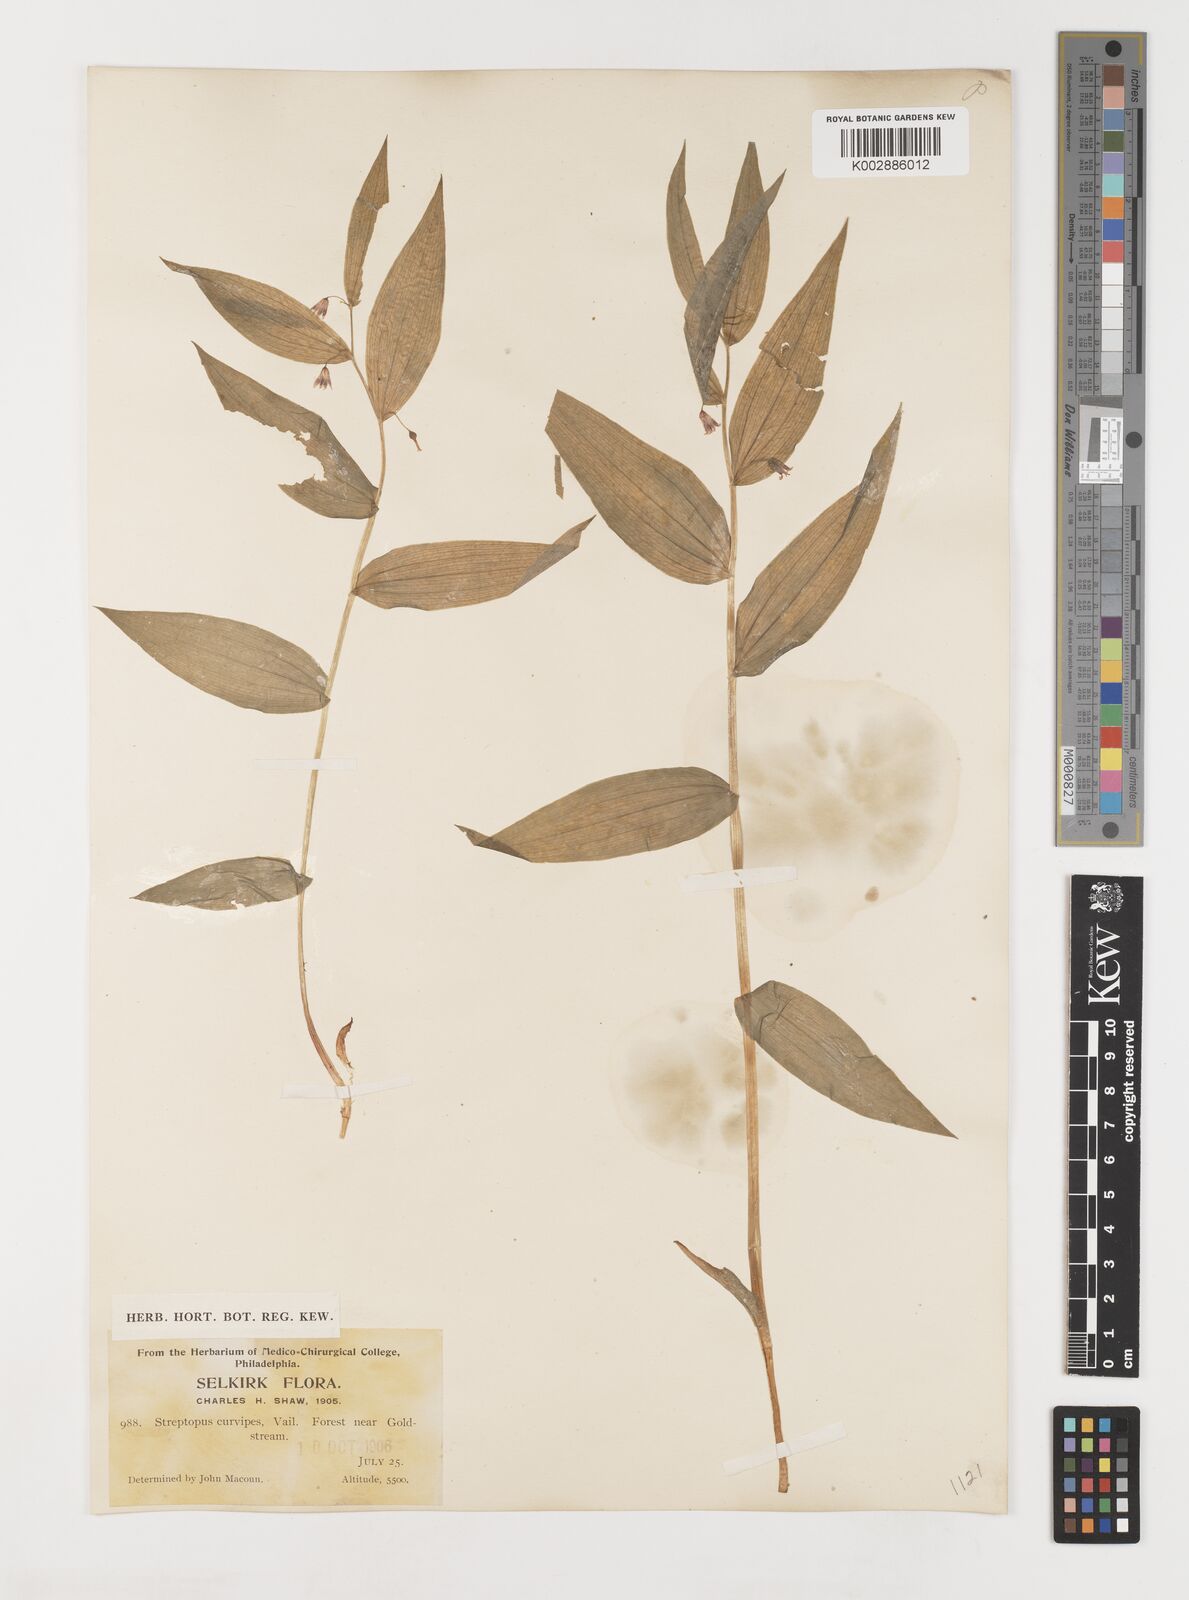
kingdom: Plantae
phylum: Tracheophyta
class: Liliopsida
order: Liliales
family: Liliaceae
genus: Streptopus
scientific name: Streptopus lanceolatus
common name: Rose mandarin
